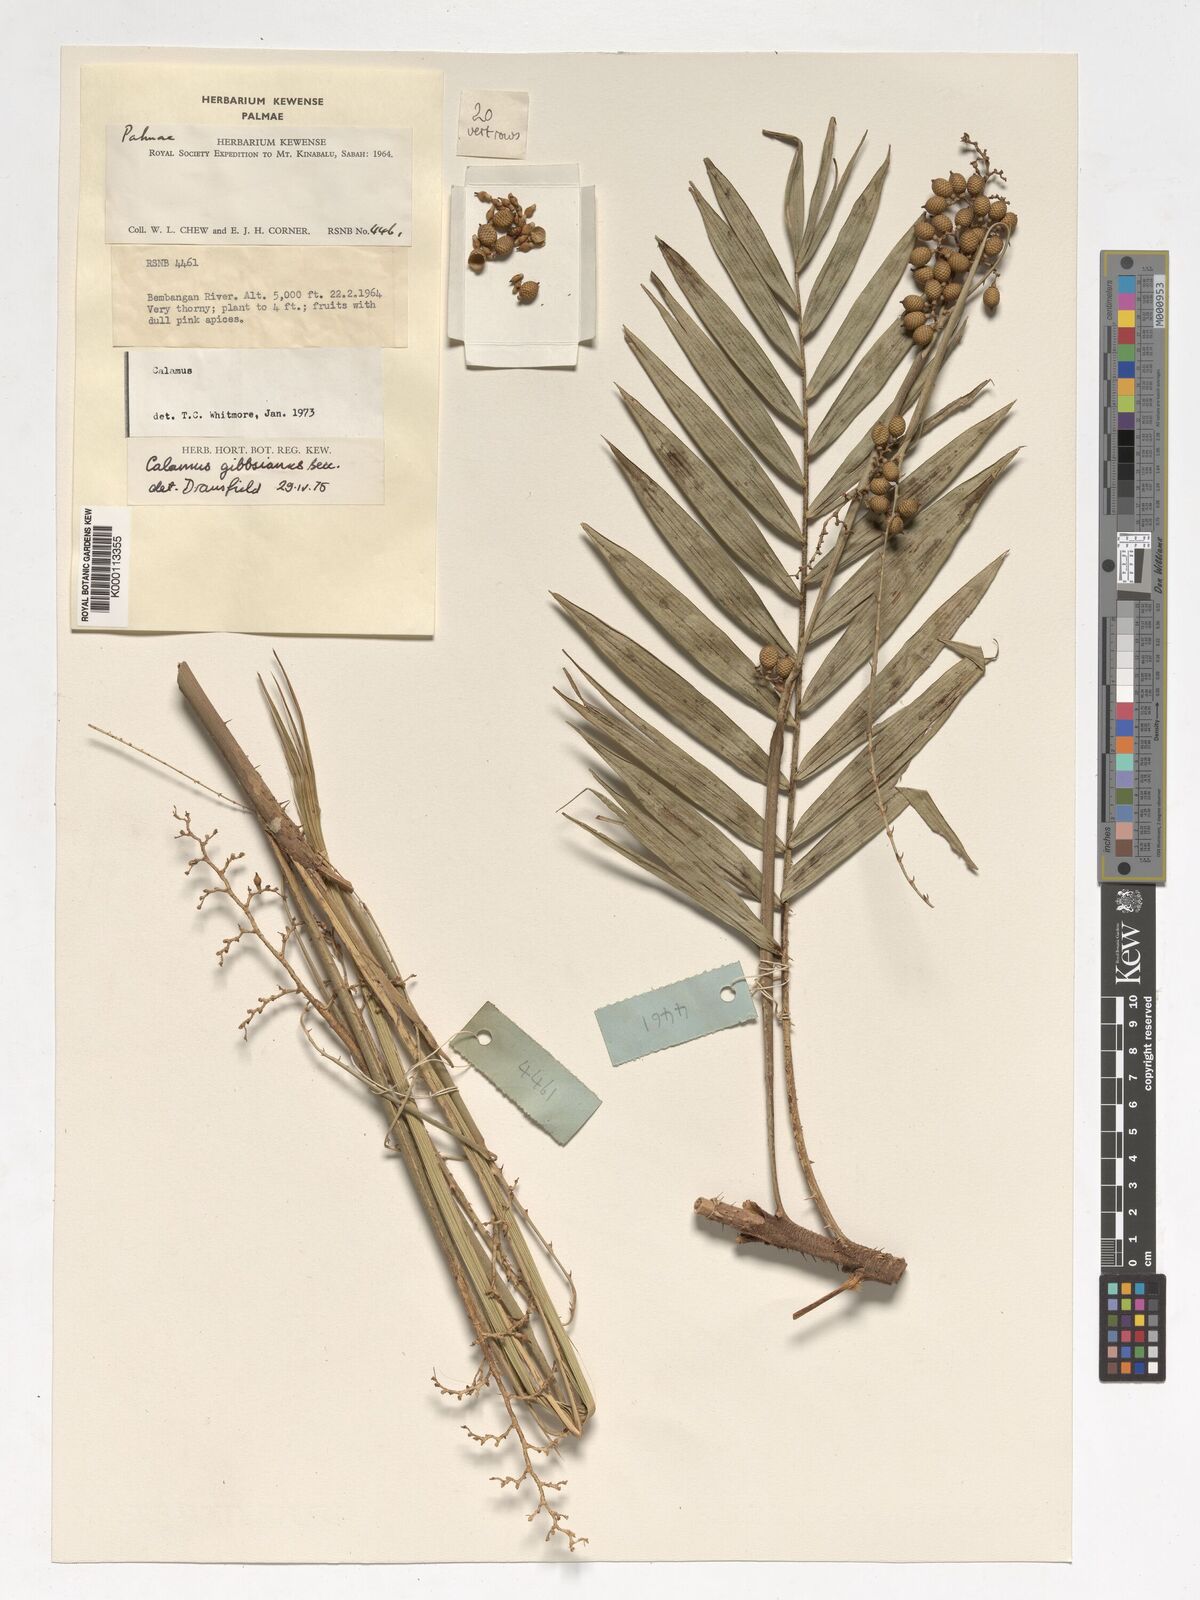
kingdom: Plantae
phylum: Tracheophyta
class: Liliopsida
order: Arecales
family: Arecaceae
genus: Calamus
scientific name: Calamus gibbsianus
